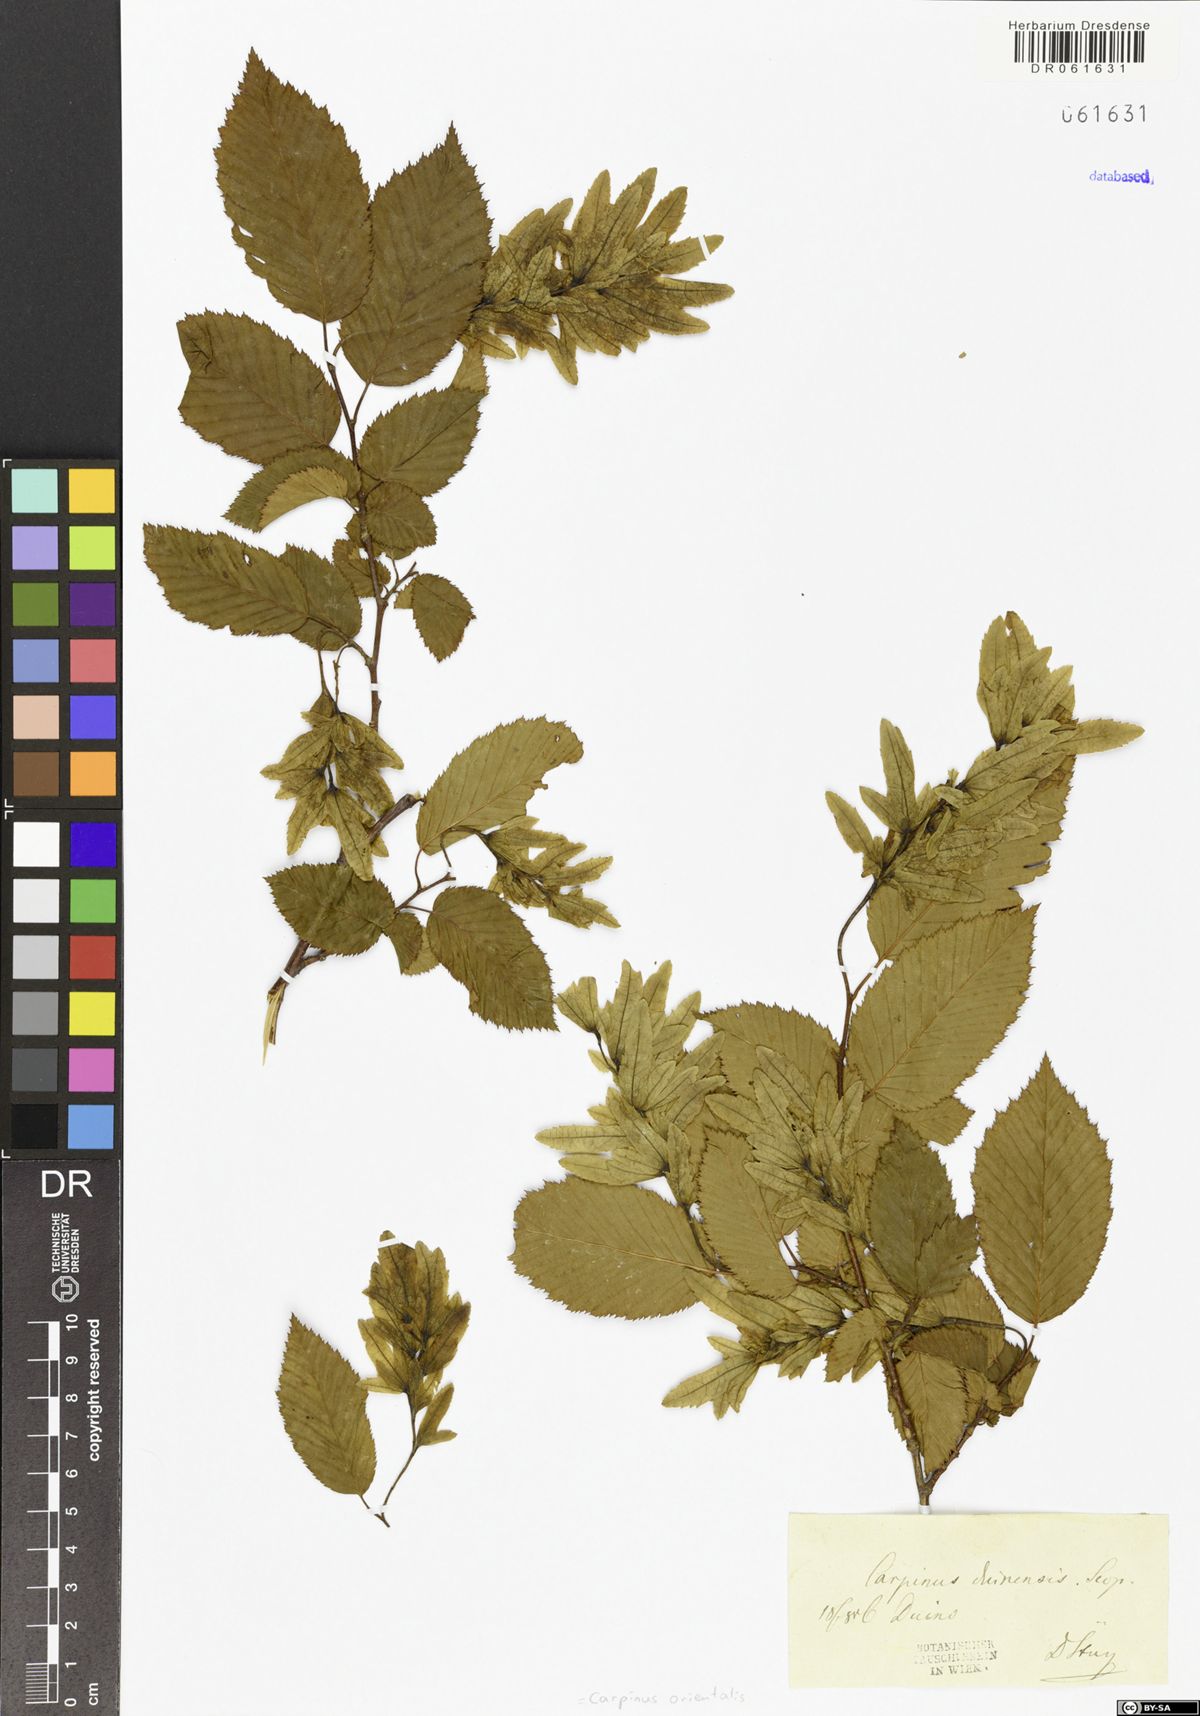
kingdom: Plantae
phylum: Tracheophyta
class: Magnoliopsida
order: Fagales
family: Betulaceae
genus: Carpinus
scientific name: Carpinus orientalis
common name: Eastern hornbeam
